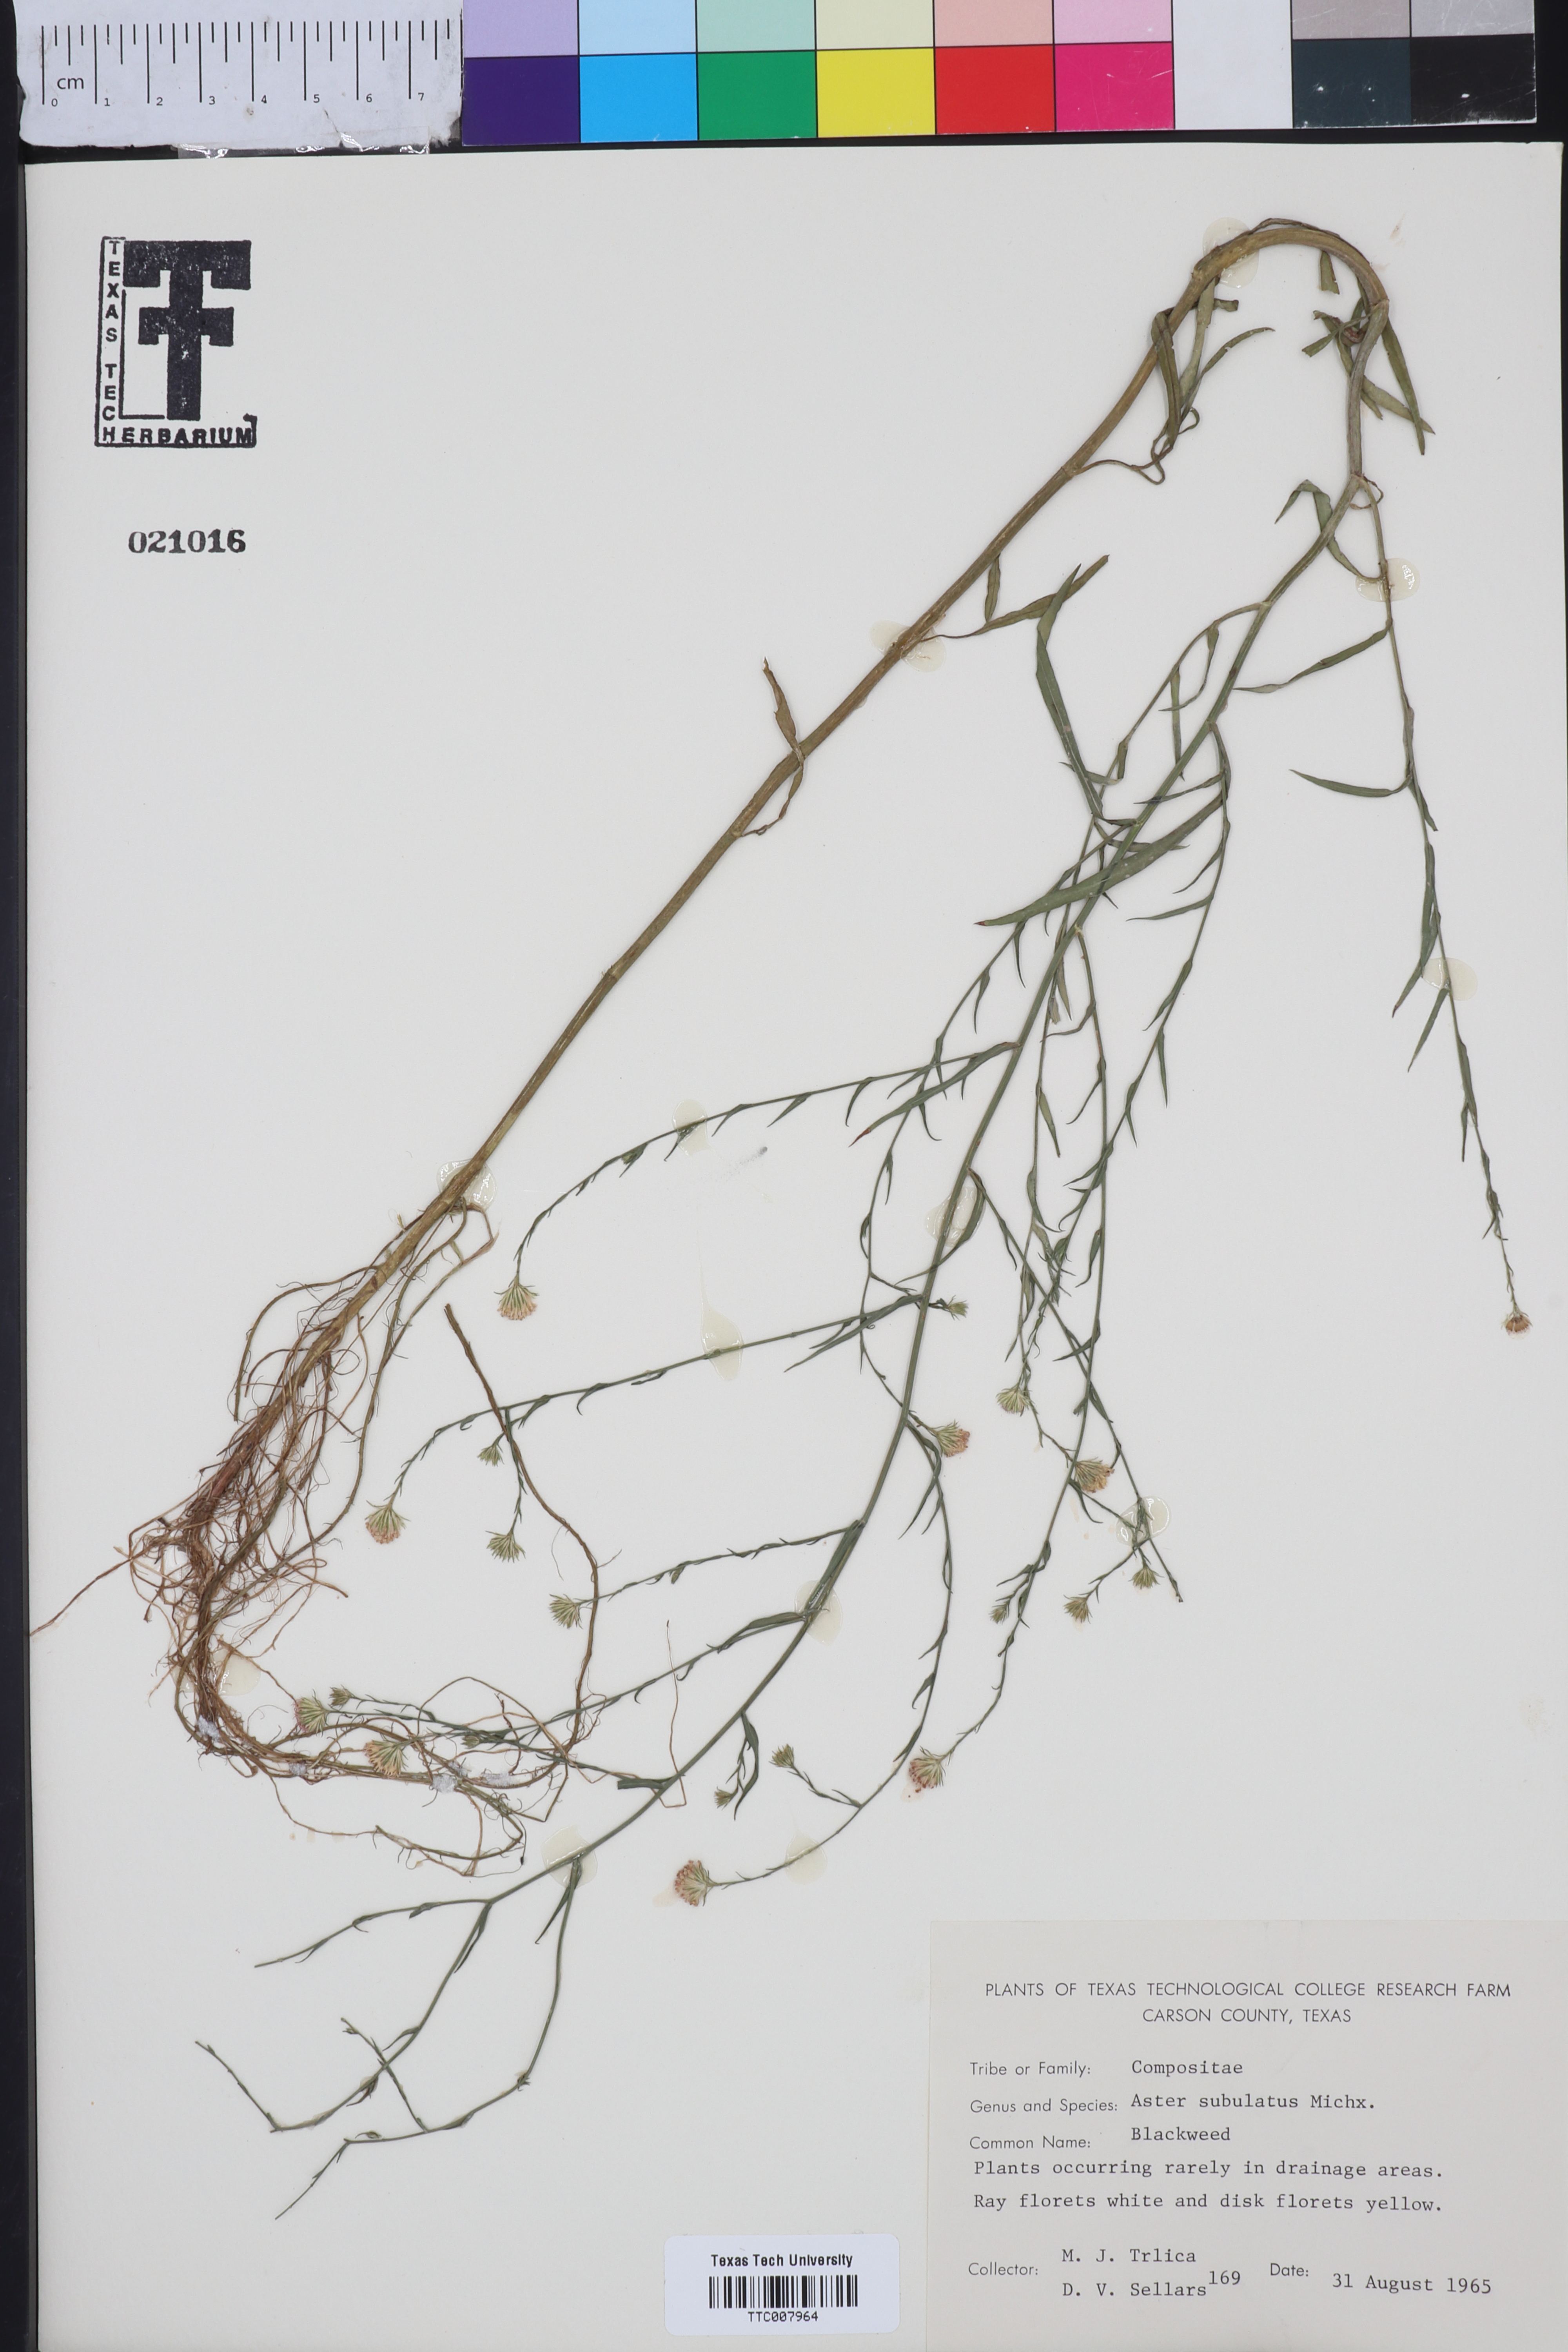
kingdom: Plantae
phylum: Tracheophyta
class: Magnoliopsida
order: Asterales
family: Asteraceae
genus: Symphyotrichum
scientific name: Symphyotrichum divaricatum
